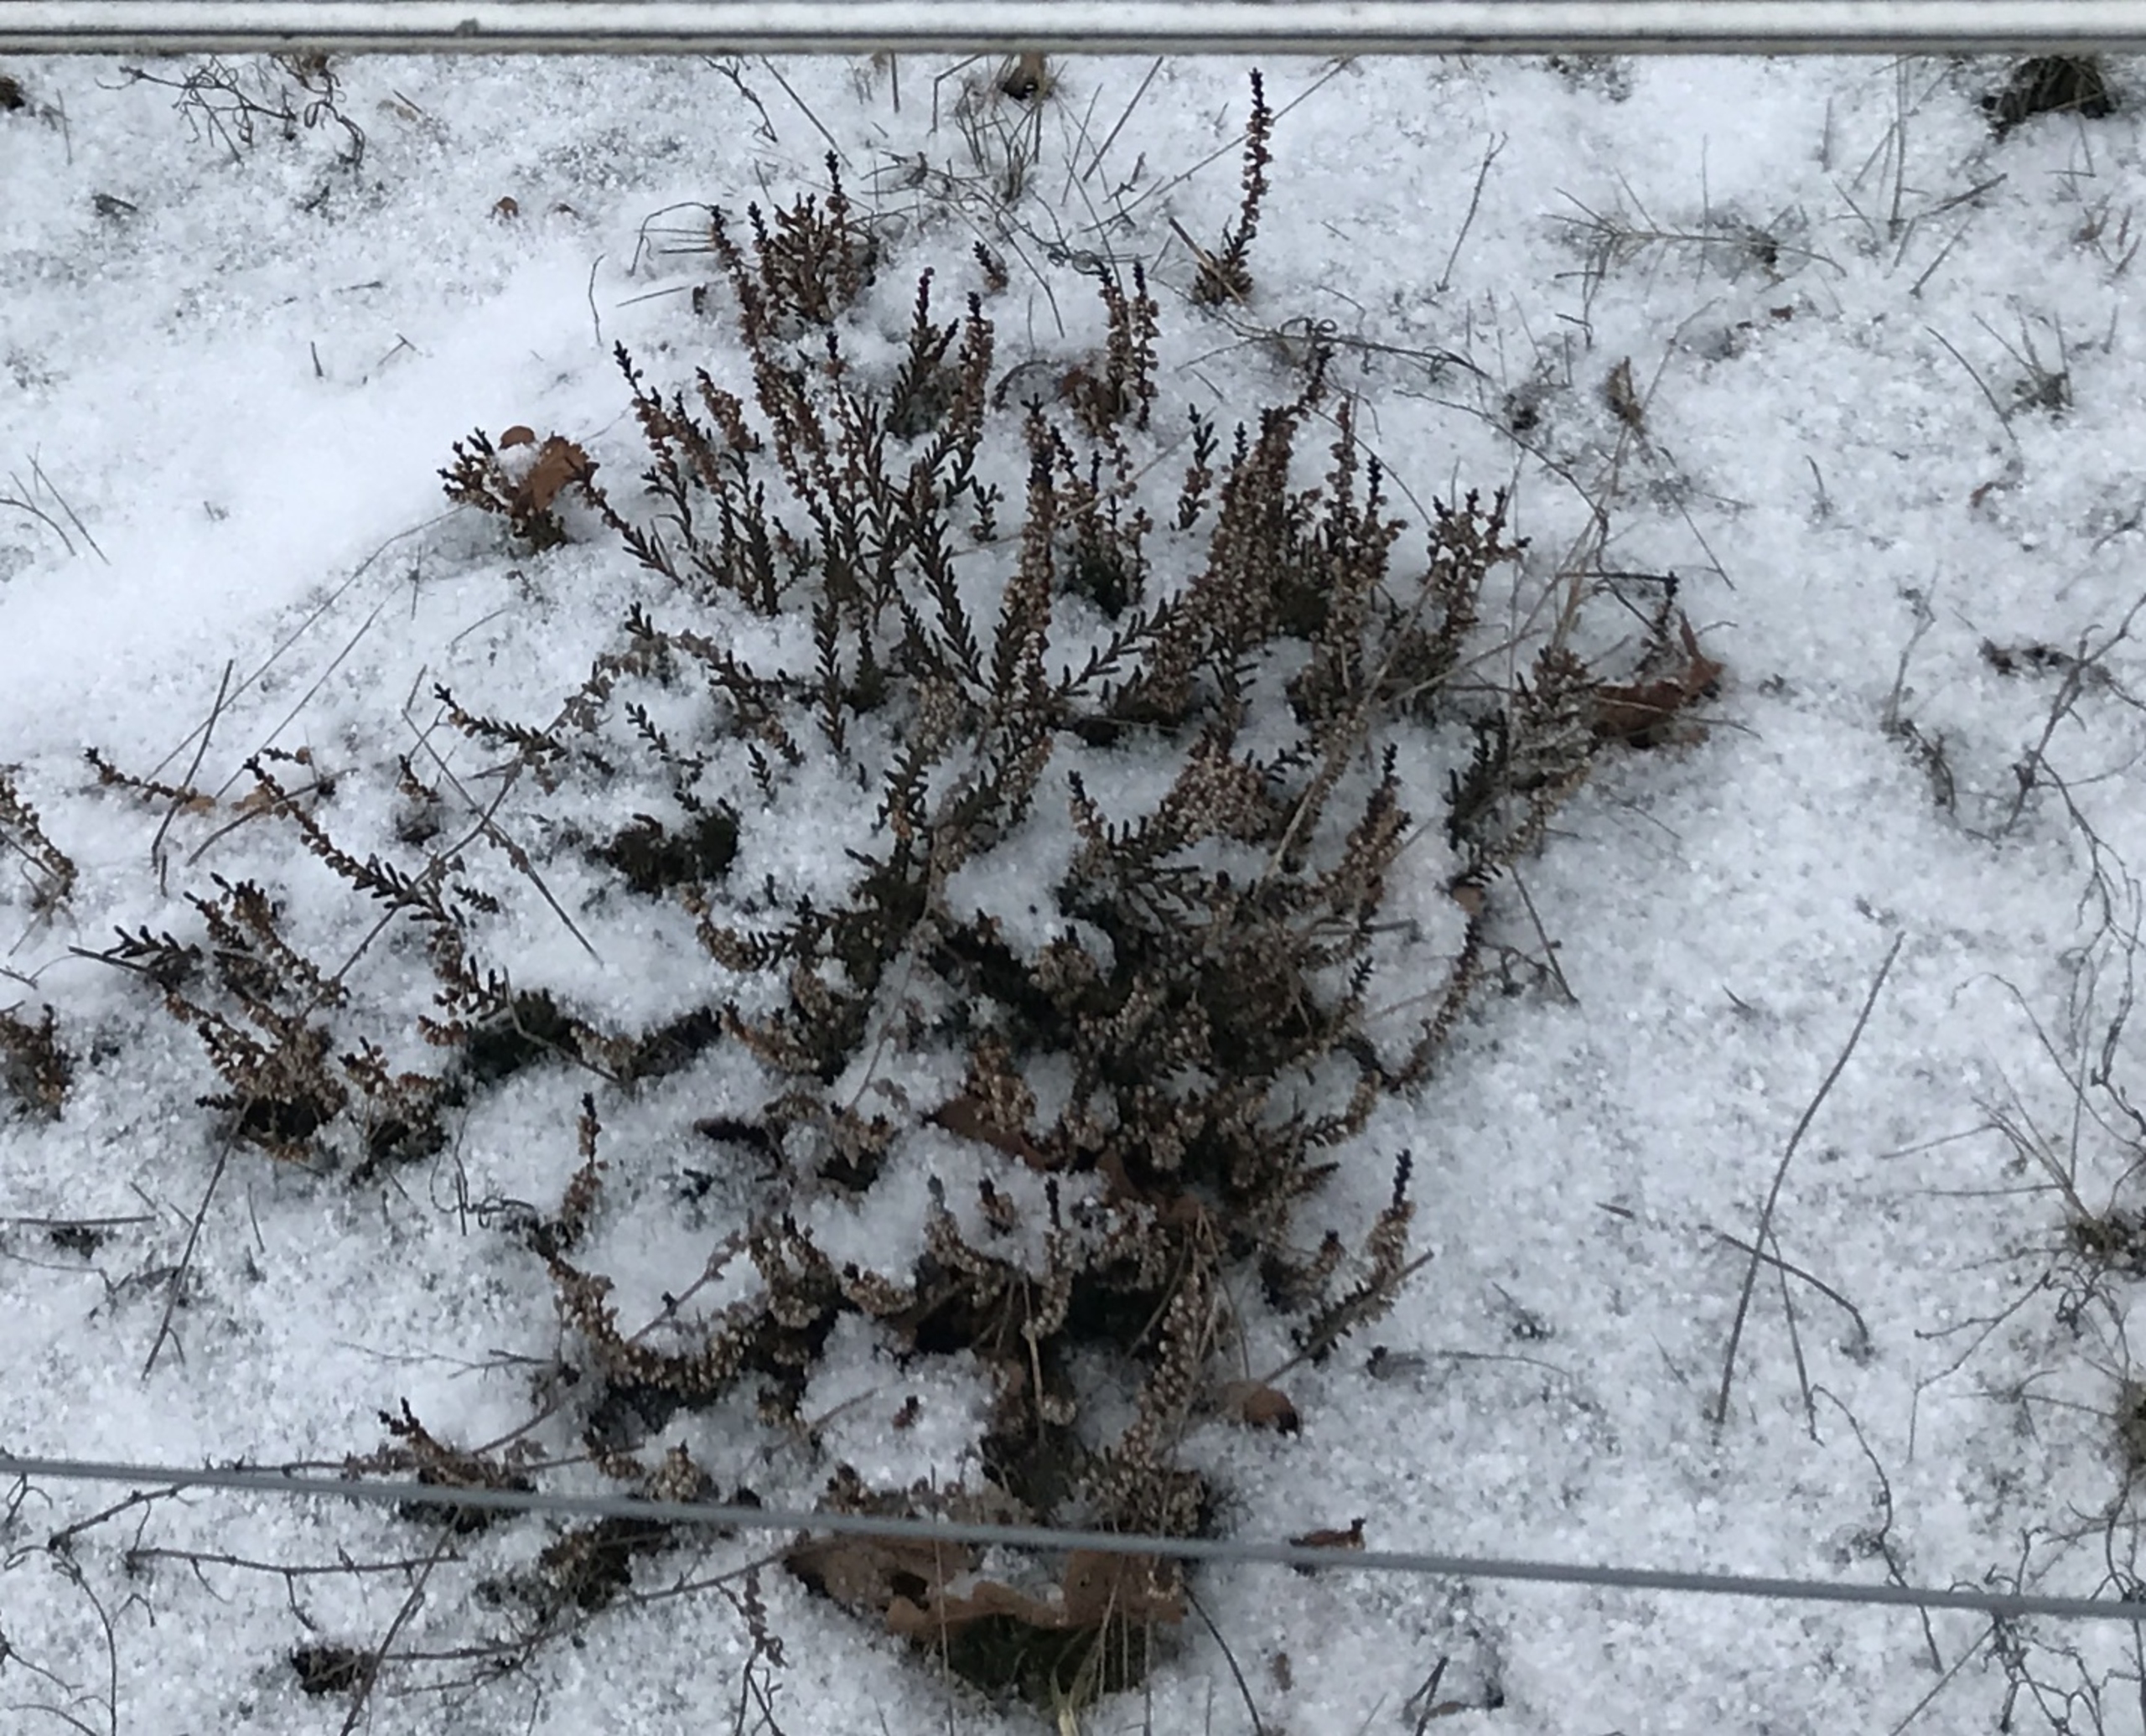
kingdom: Plantae
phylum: Tracheophyta
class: Magnoliopsida
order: Ericales
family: Ericaceae
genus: Calluna
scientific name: Calluna vulgaris
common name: Hedelyng
